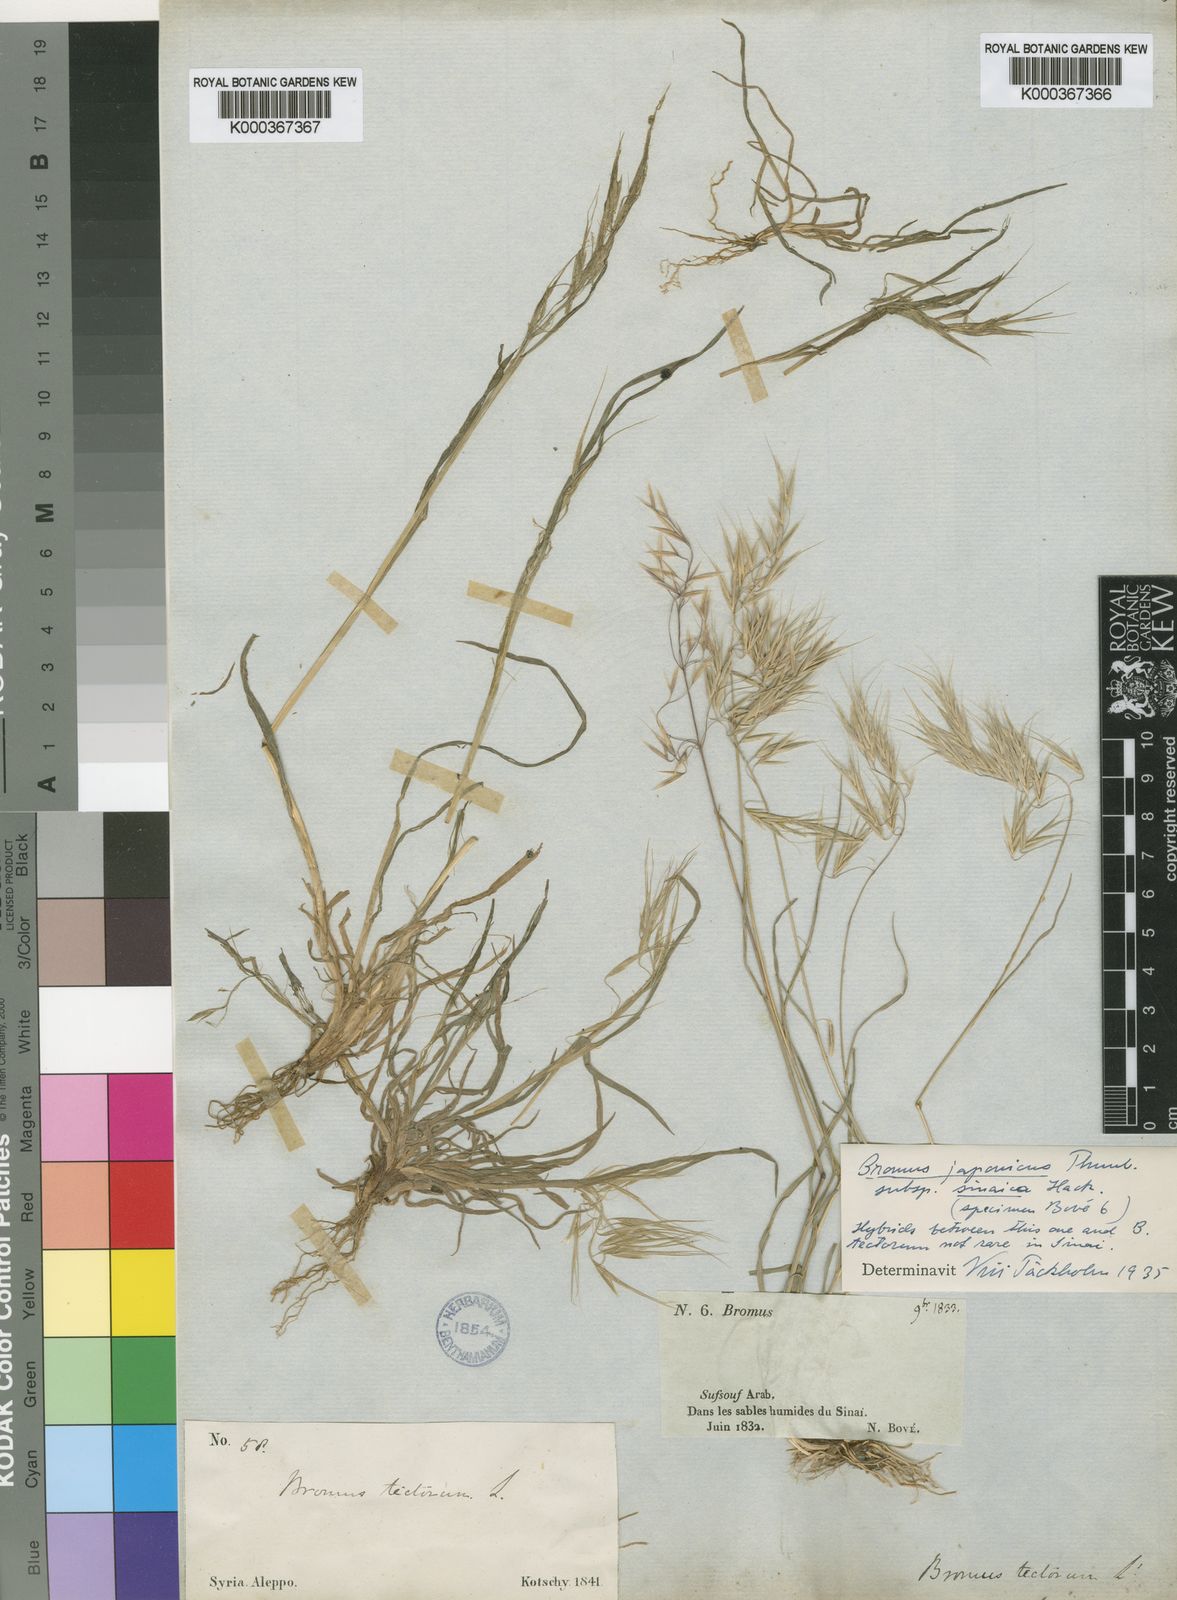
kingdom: Plantae
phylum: Tracheophyta
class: Liliopsida
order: Poales
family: Poaceae
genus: Bromus
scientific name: Bromus pectinatus
